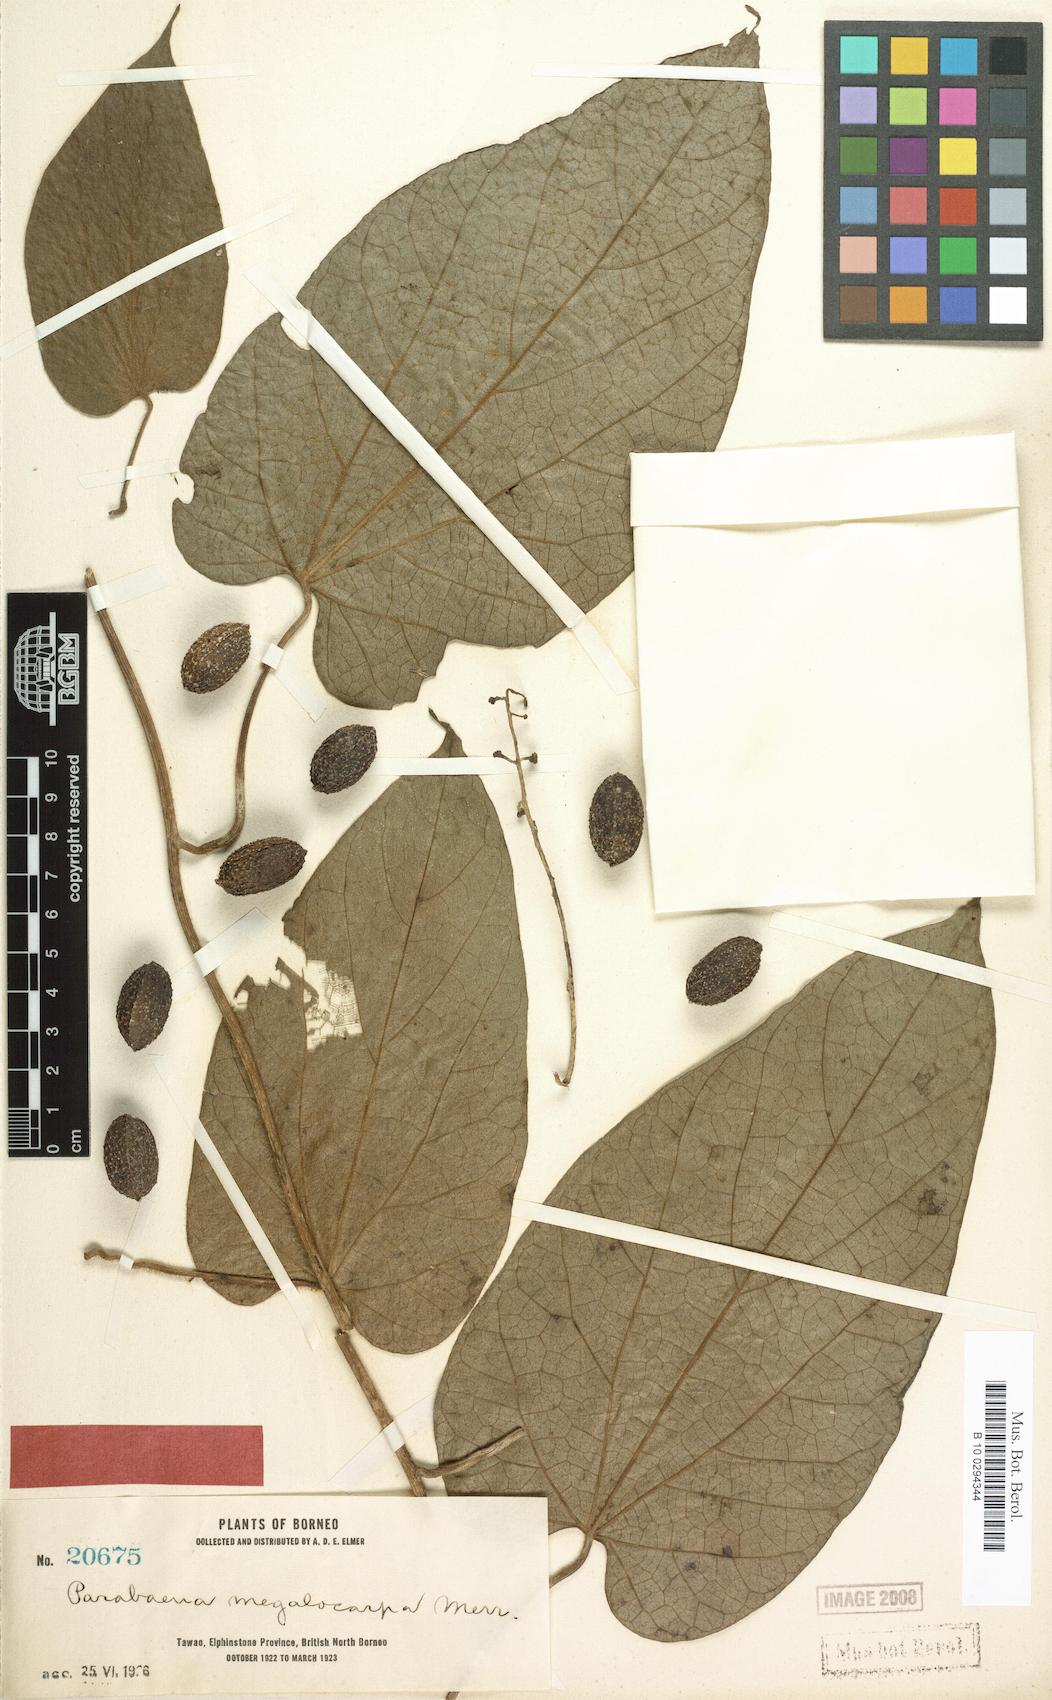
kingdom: Plantae
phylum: Tracheophyta
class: Magnoliopsida
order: Ranunculales
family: Menispermaceae
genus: Parabaena
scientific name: Parabaena megalocarpa
